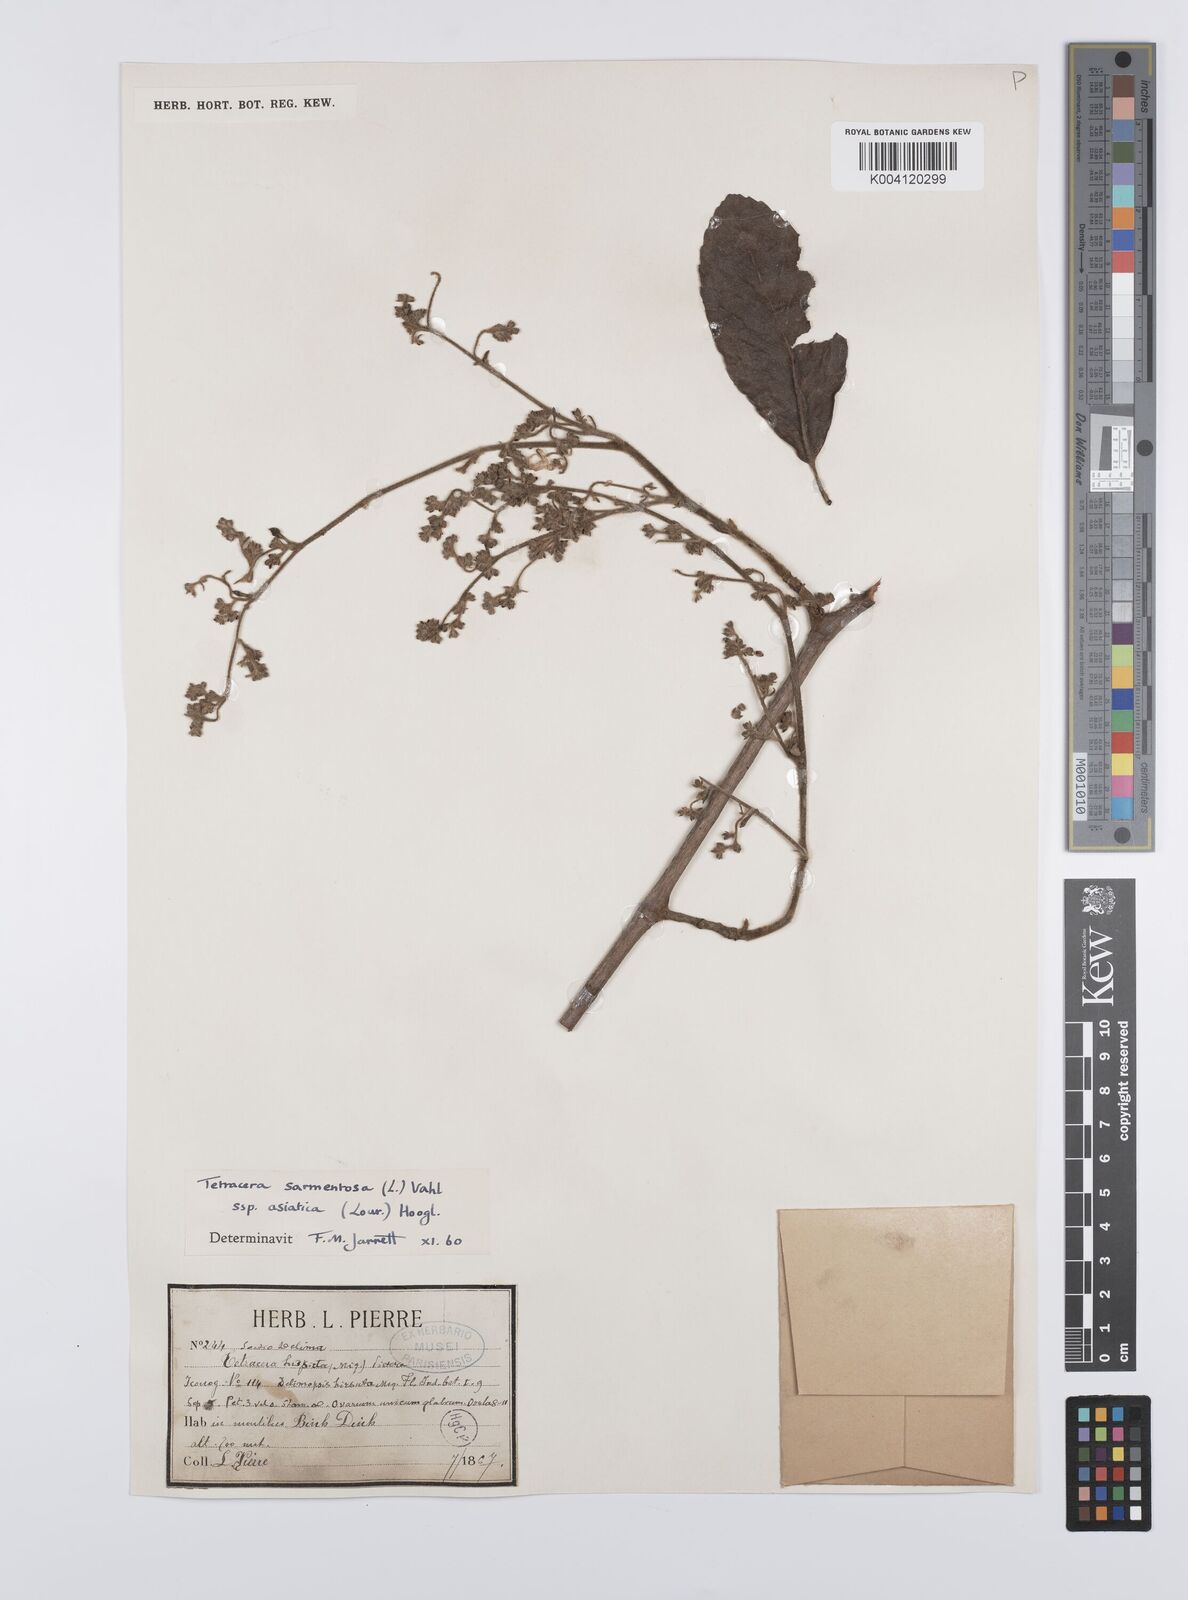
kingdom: Plantae
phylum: Tracheophyta
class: Magnoliopsida
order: Dilleniales
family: Dilleniaceae
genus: Tetracera
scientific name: Tetracera sarmentosa
